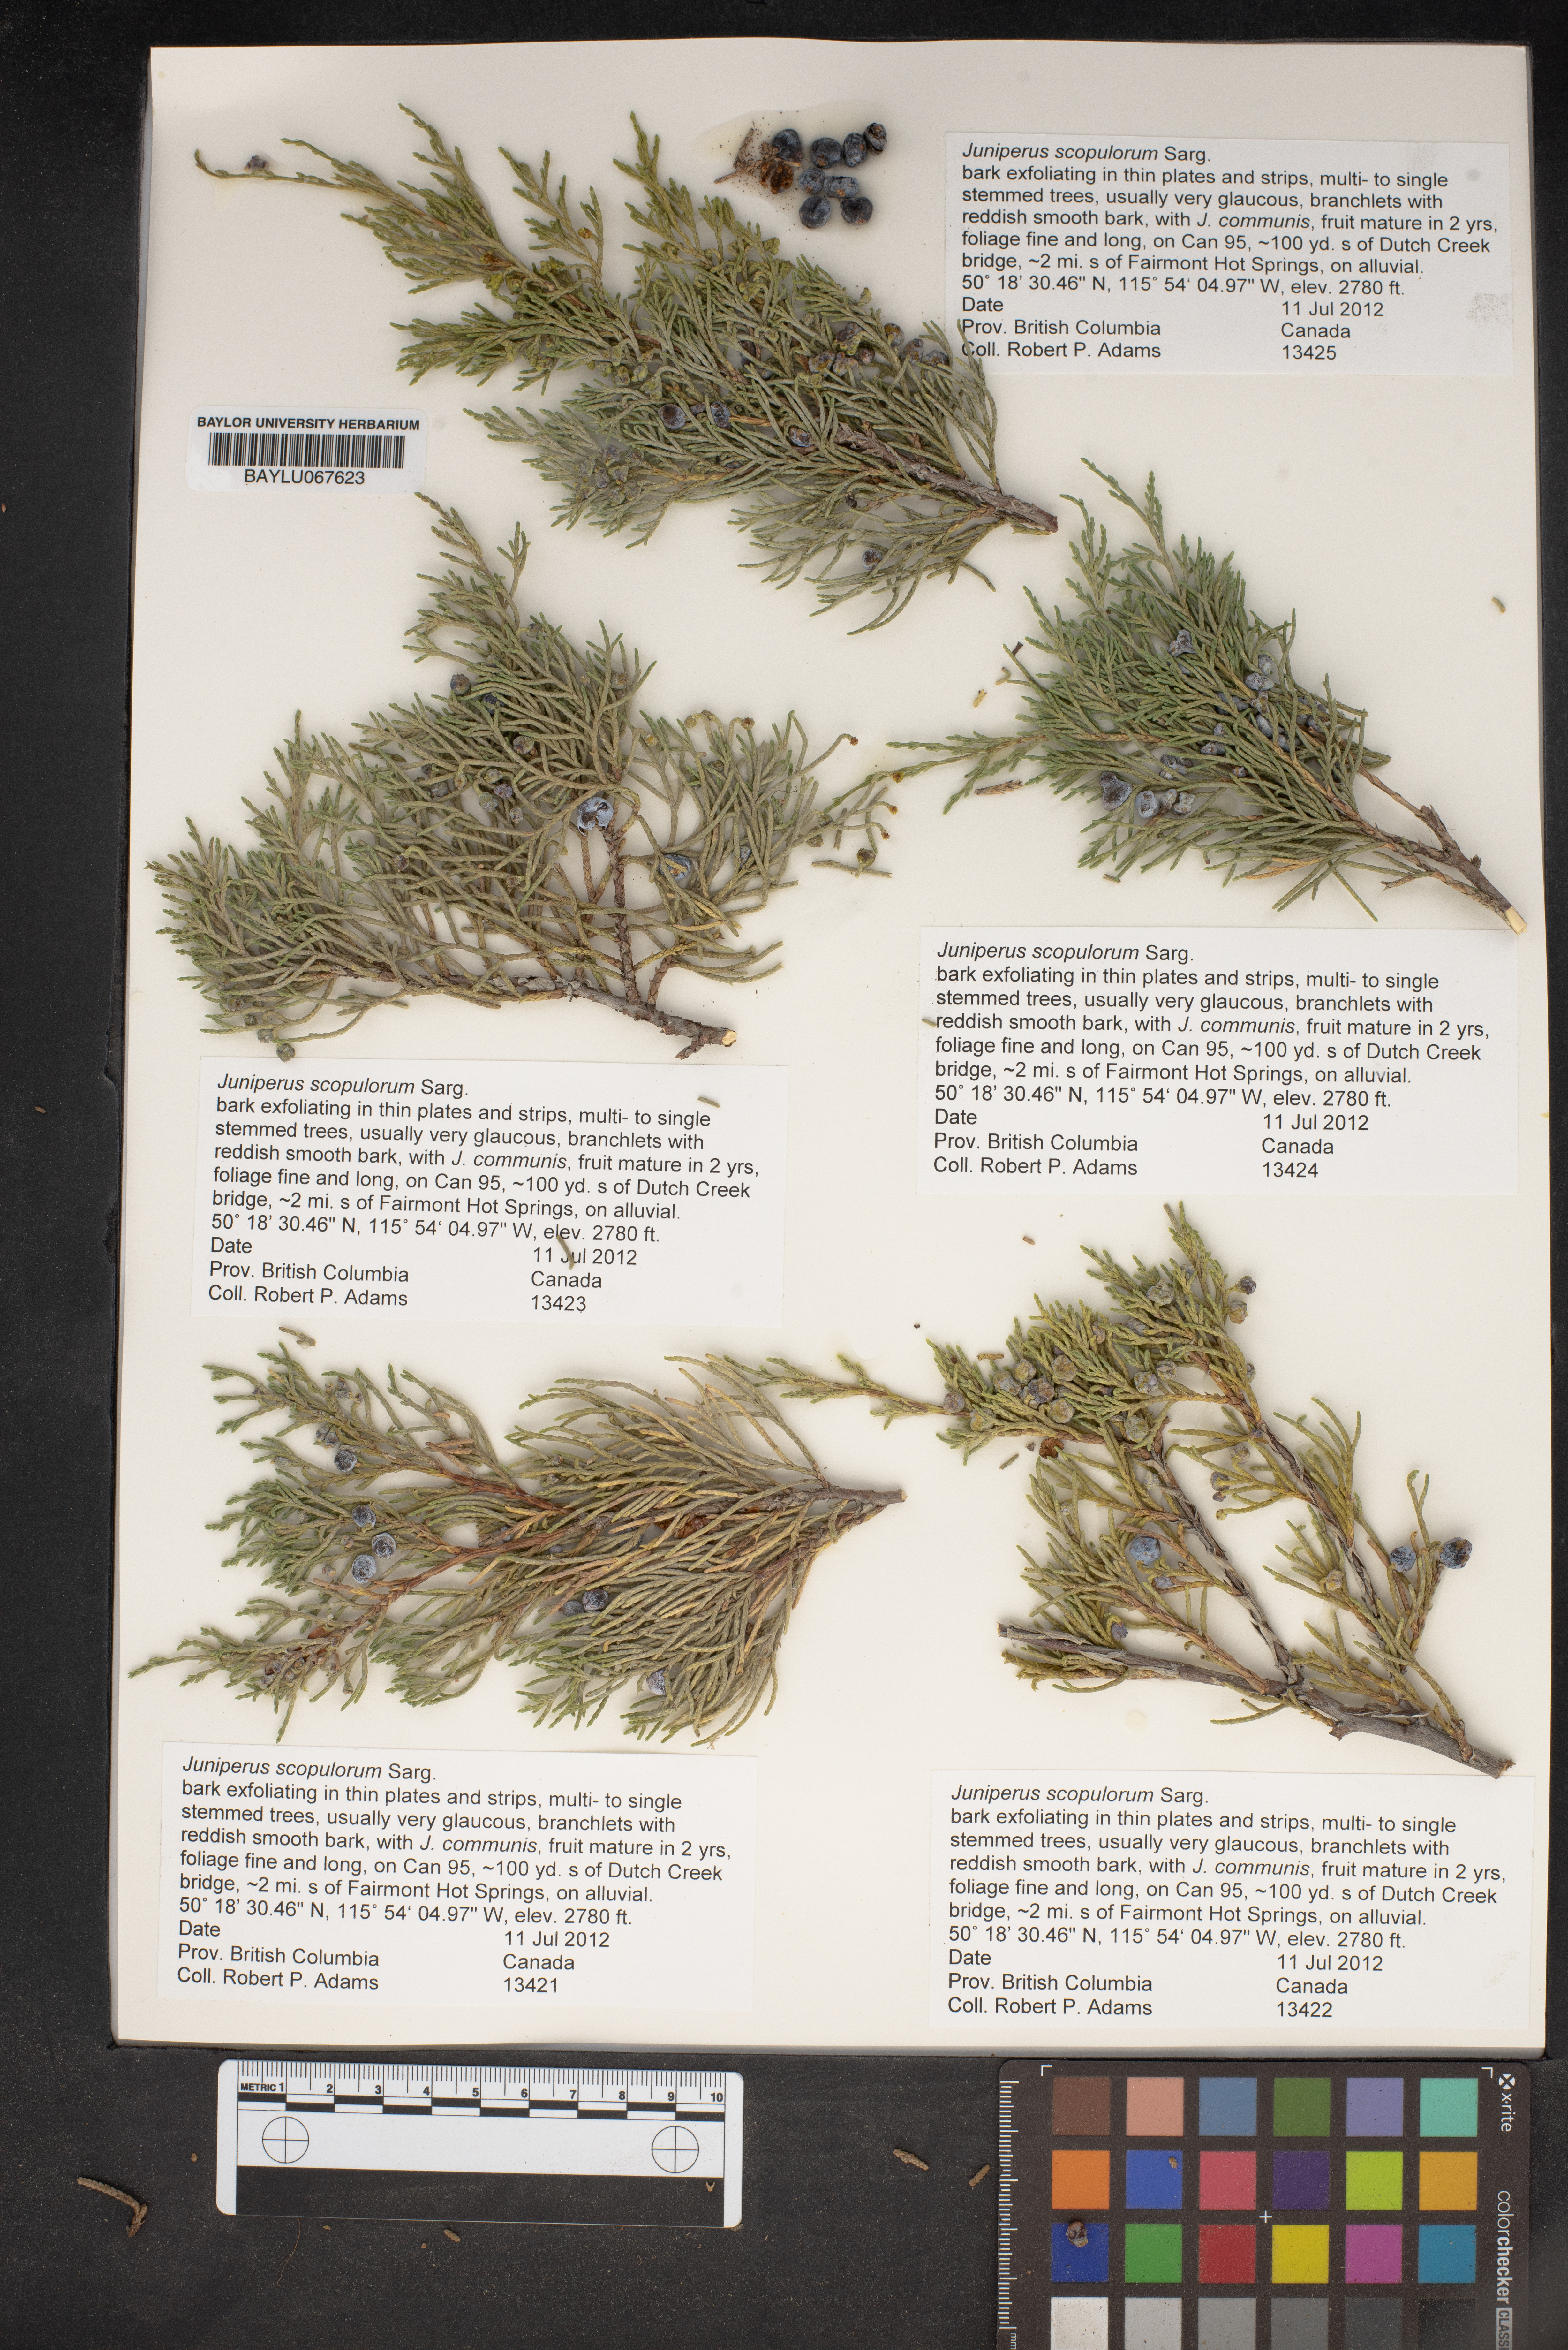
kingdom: Plantae
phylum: Tracheophyta
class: Pinopsida
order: Pinales
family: Cupressaceae
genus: Juniperus
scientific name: Juniperus scopulorum
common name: Rocky mountain juniper
